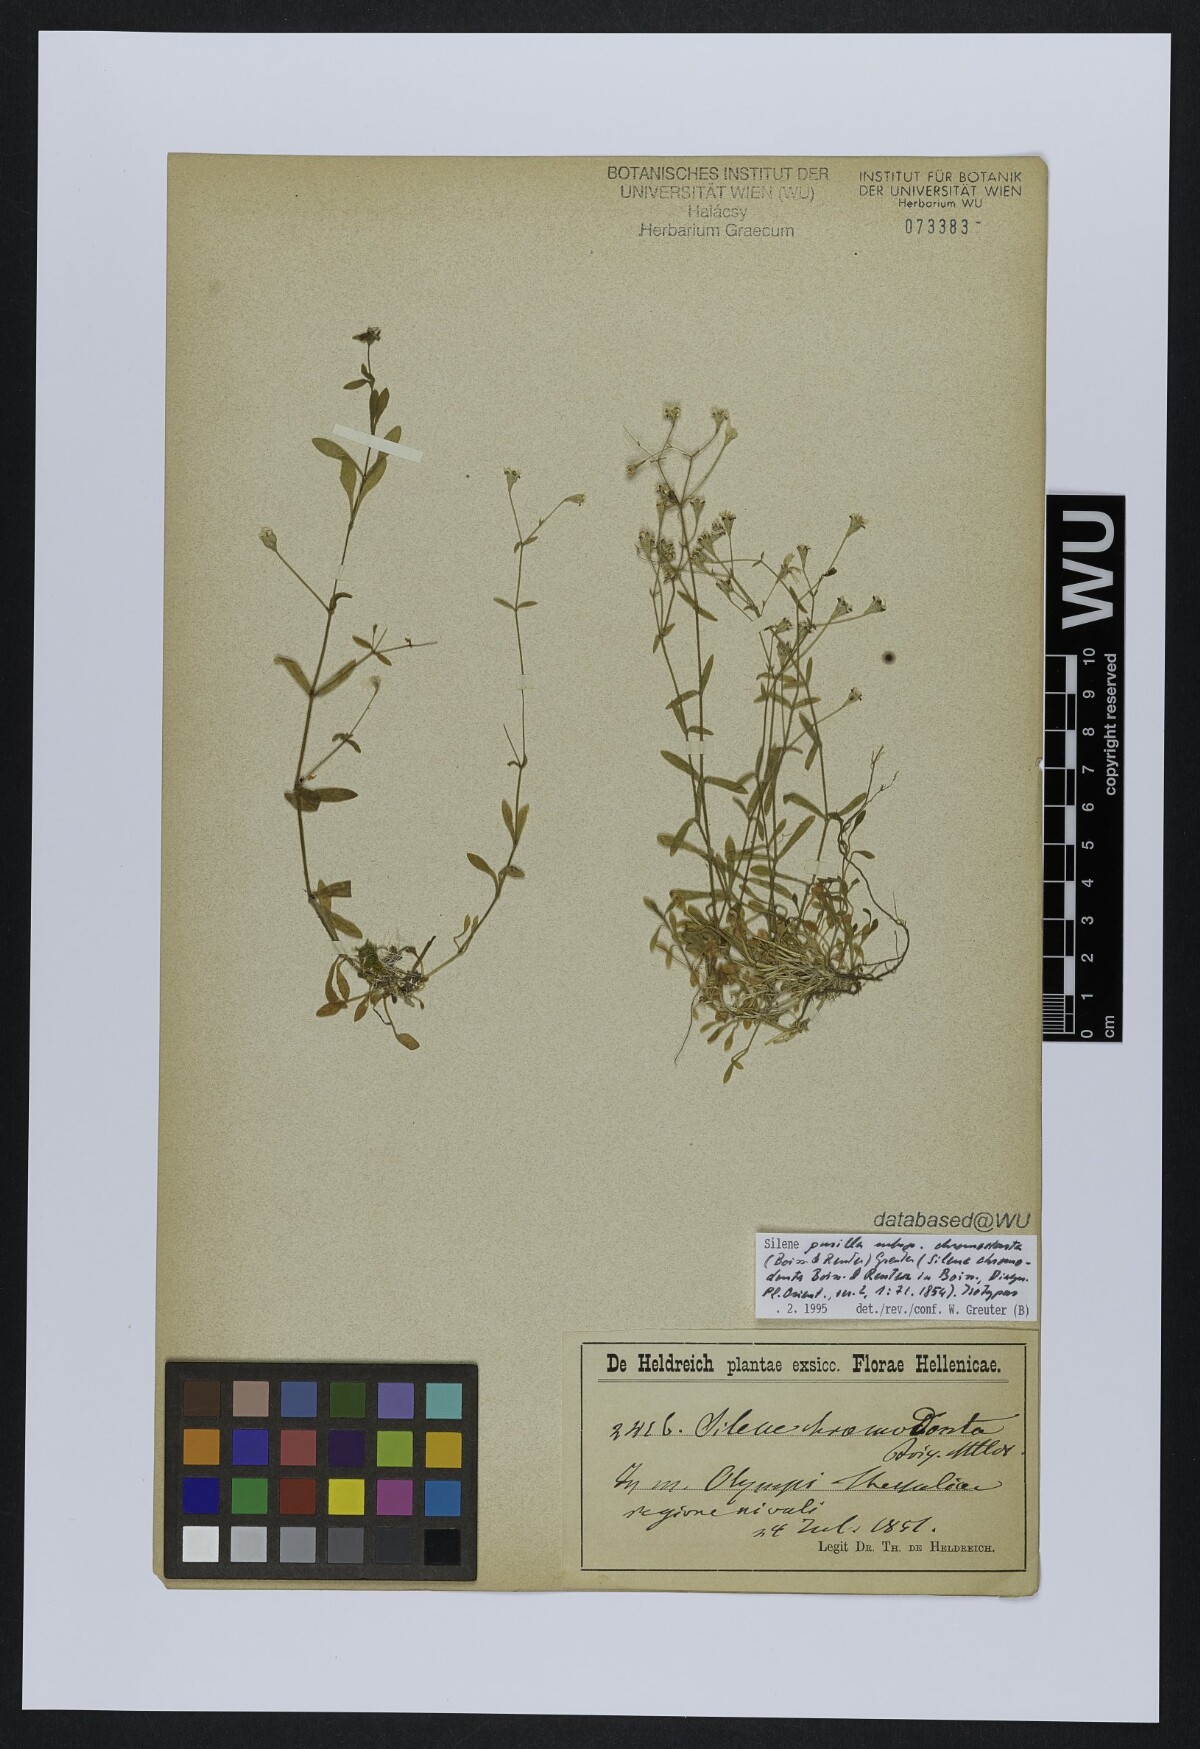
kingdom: Plantae
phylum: Tracheophyta
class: Magnoliopsida
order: Caryophyllales
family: Caryophyllaceae
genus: Heliosperma
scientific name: Heliosperma pusillum
